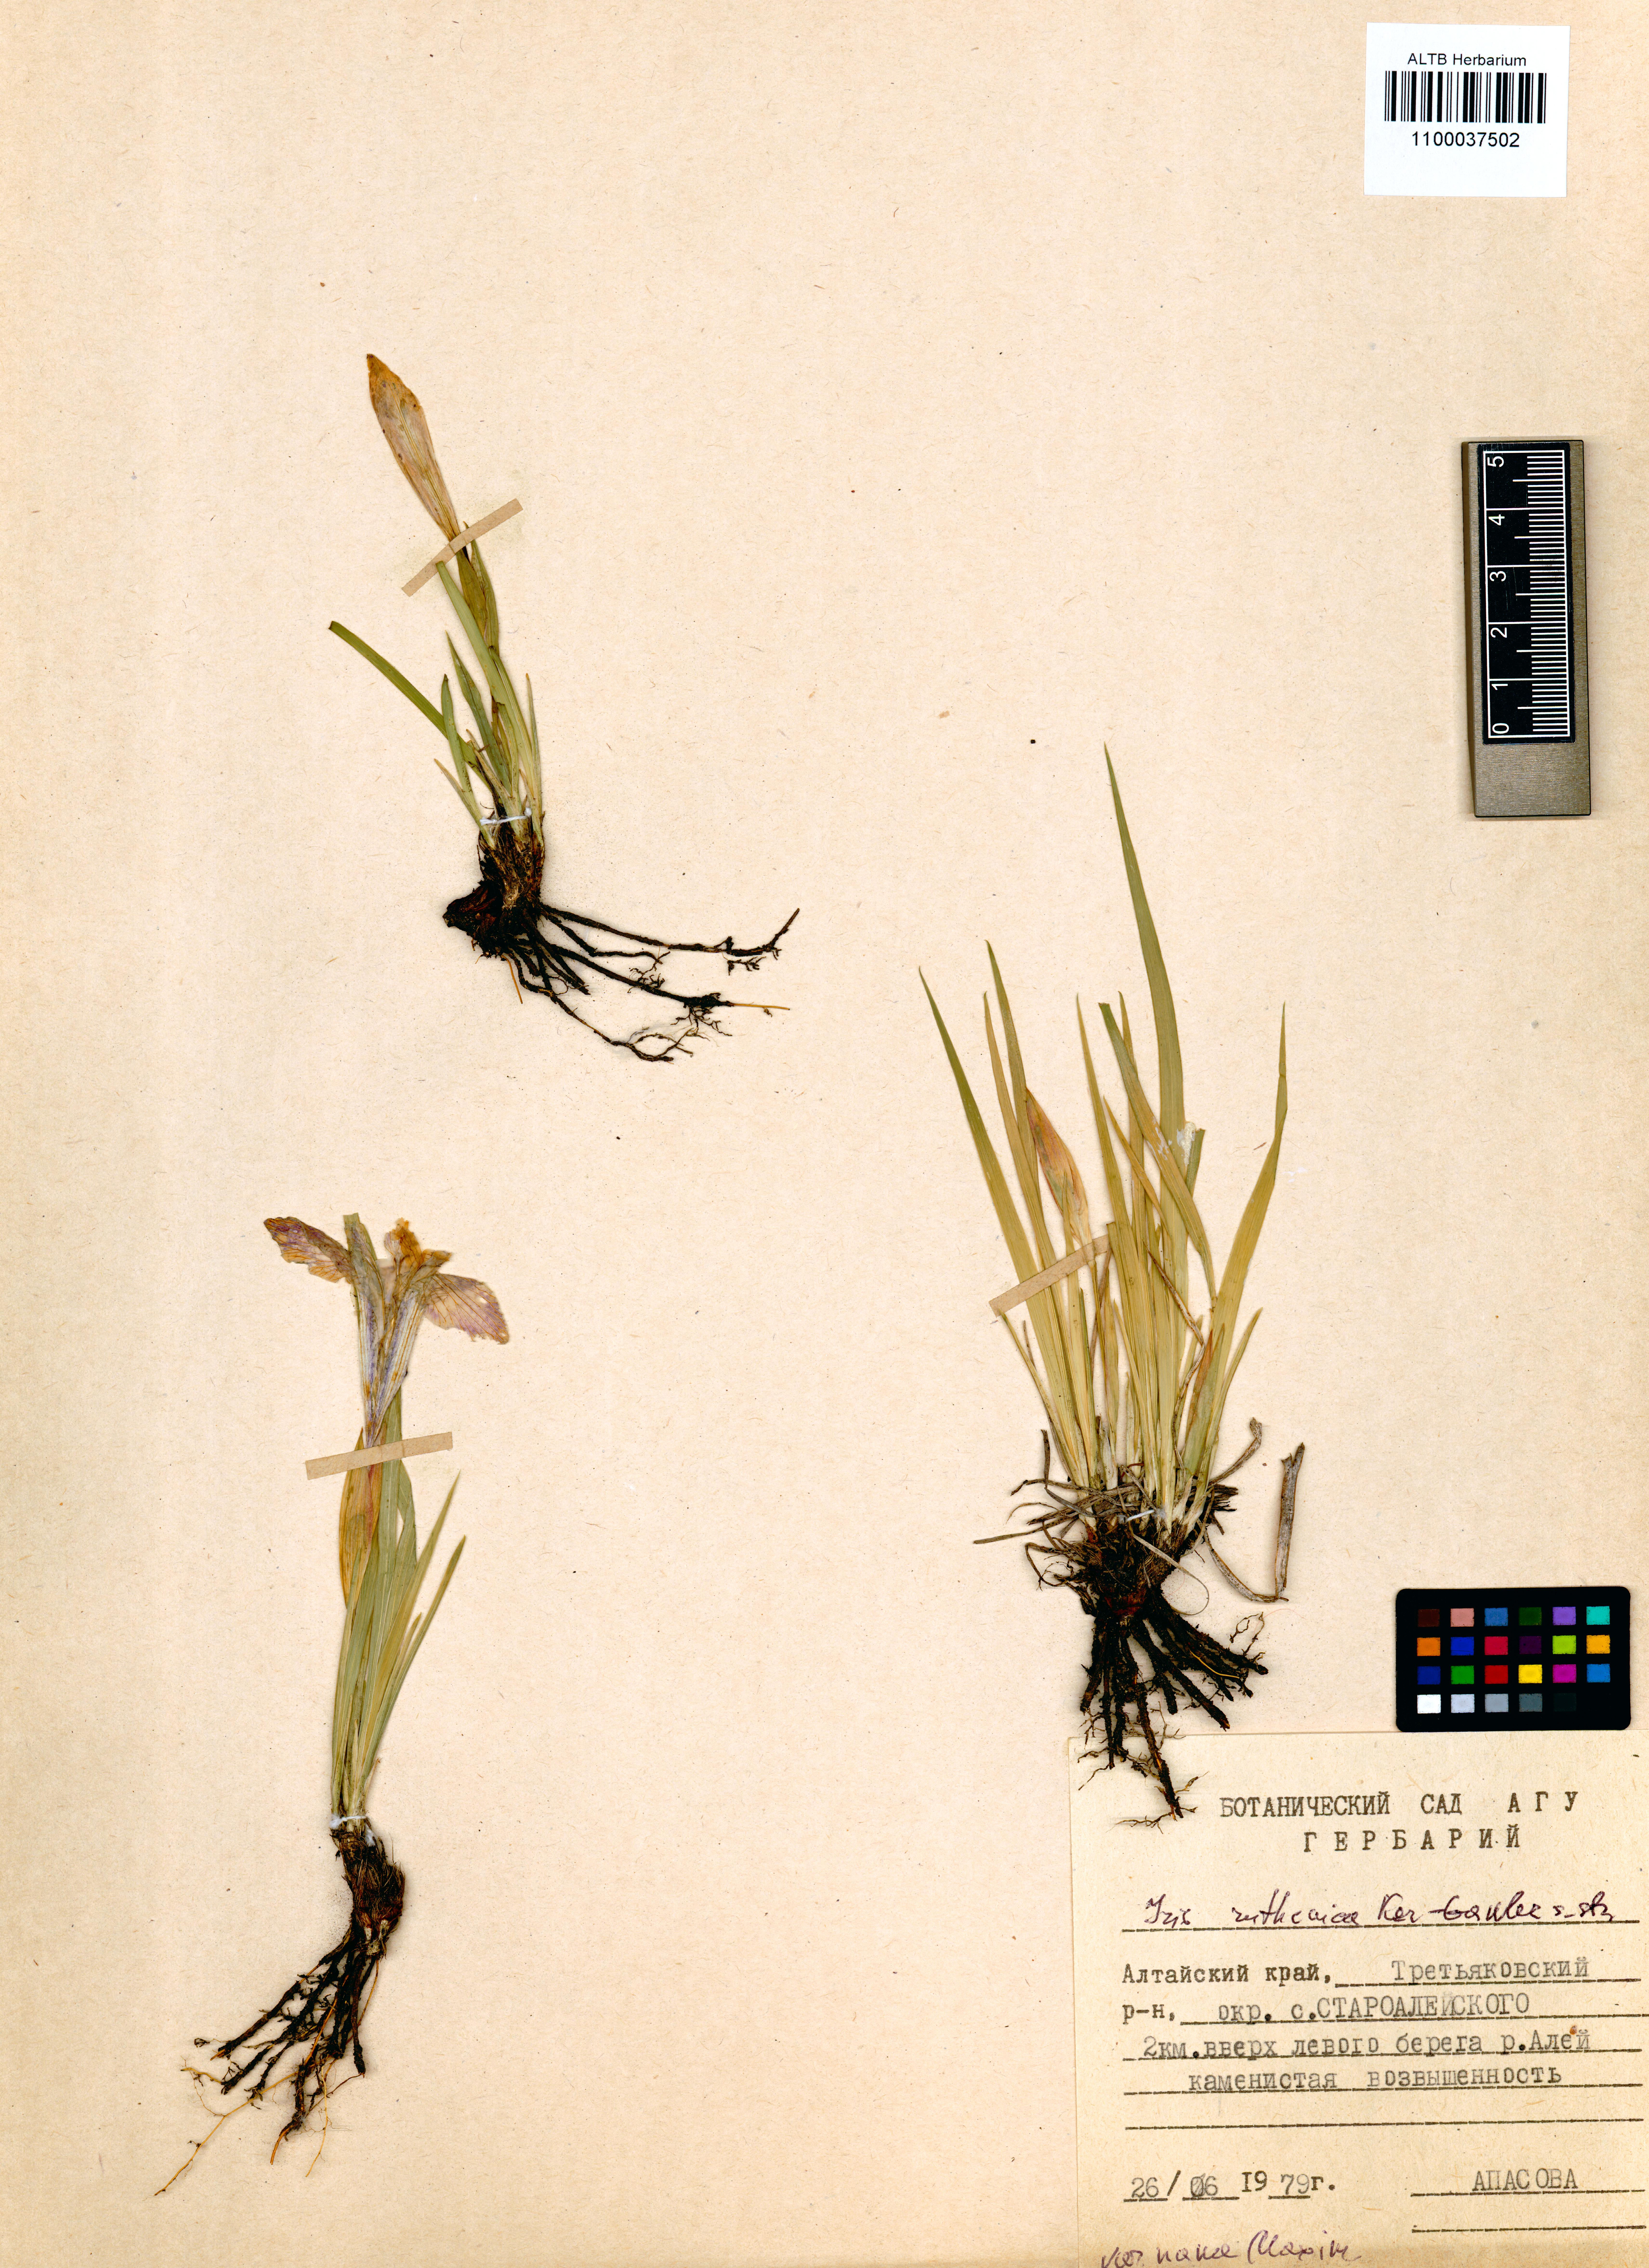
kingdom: Plantae
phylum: Tracheophyta
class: Liliopsida
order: Asparagales
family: Iridaceae
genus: Iris
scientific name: Iris ruthenica
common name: Purple-bract iris
